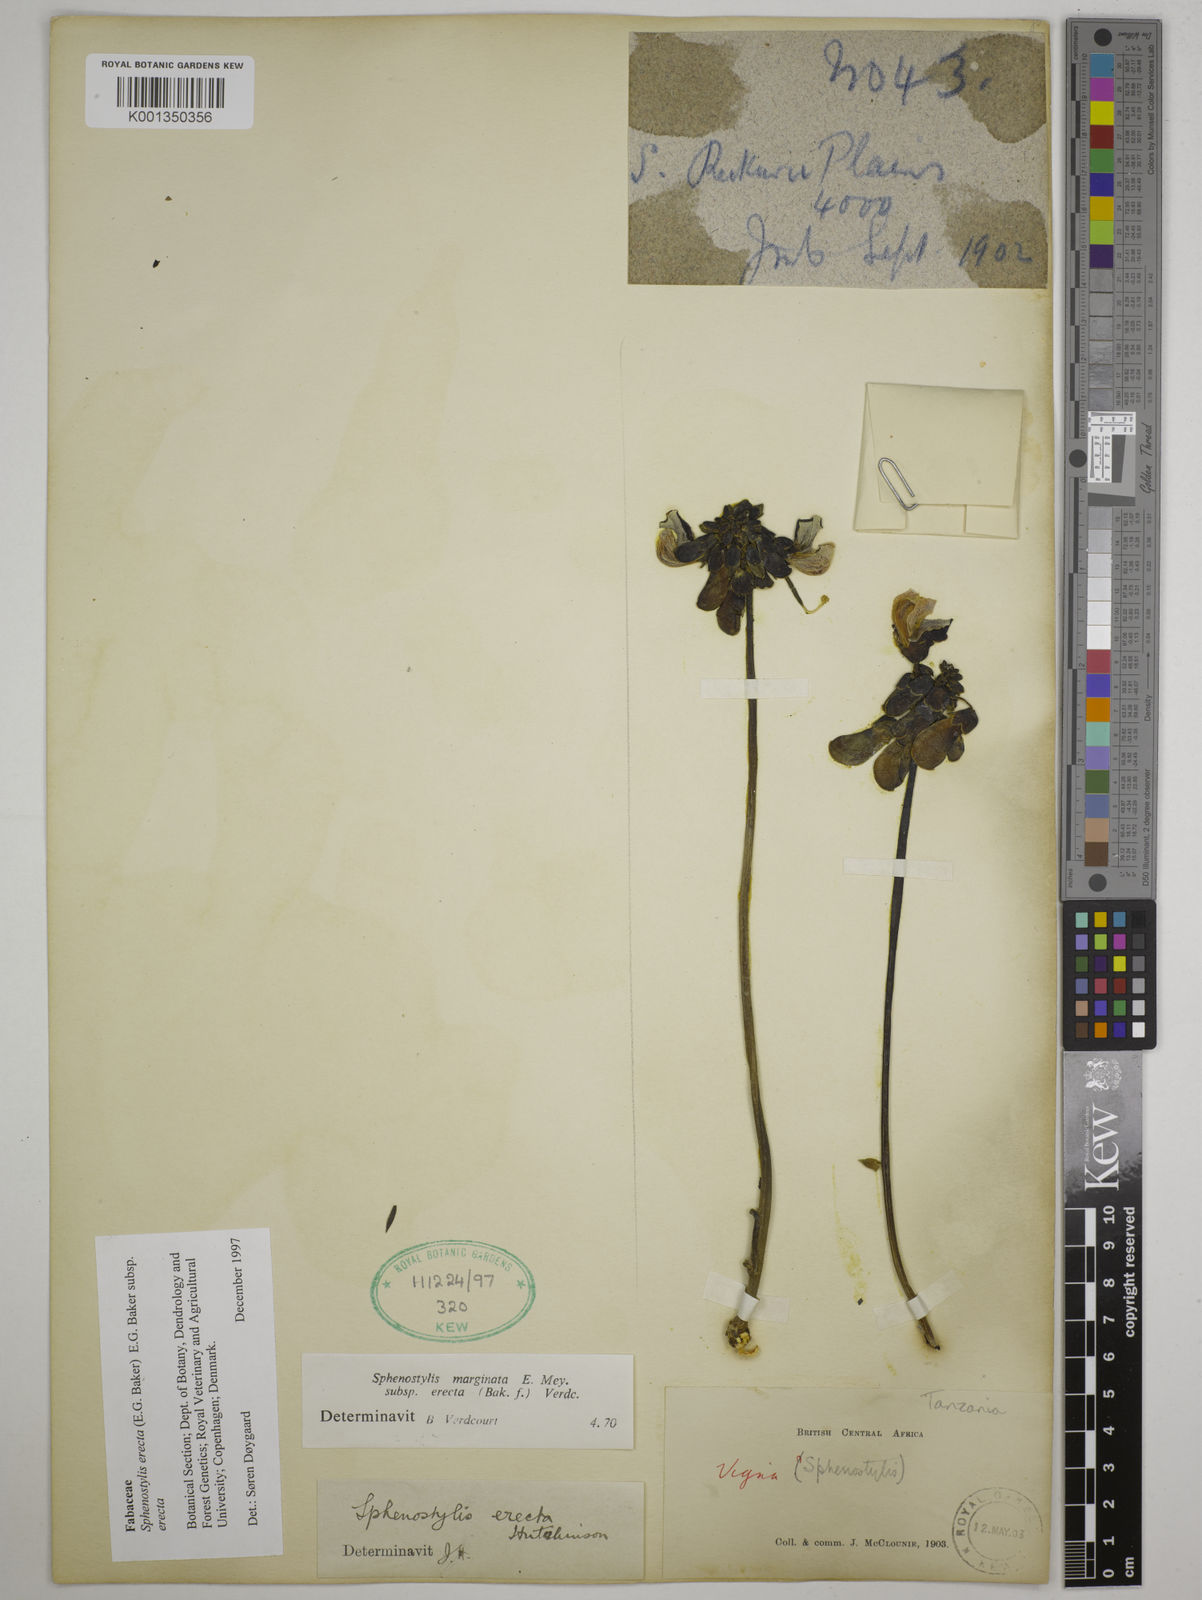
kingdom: Plantae
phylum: Tracheophyta
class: Magnoliopsida
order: Fabales
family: Fabaceae
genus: Sphenostylis
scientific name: Sphenostylis erecta
